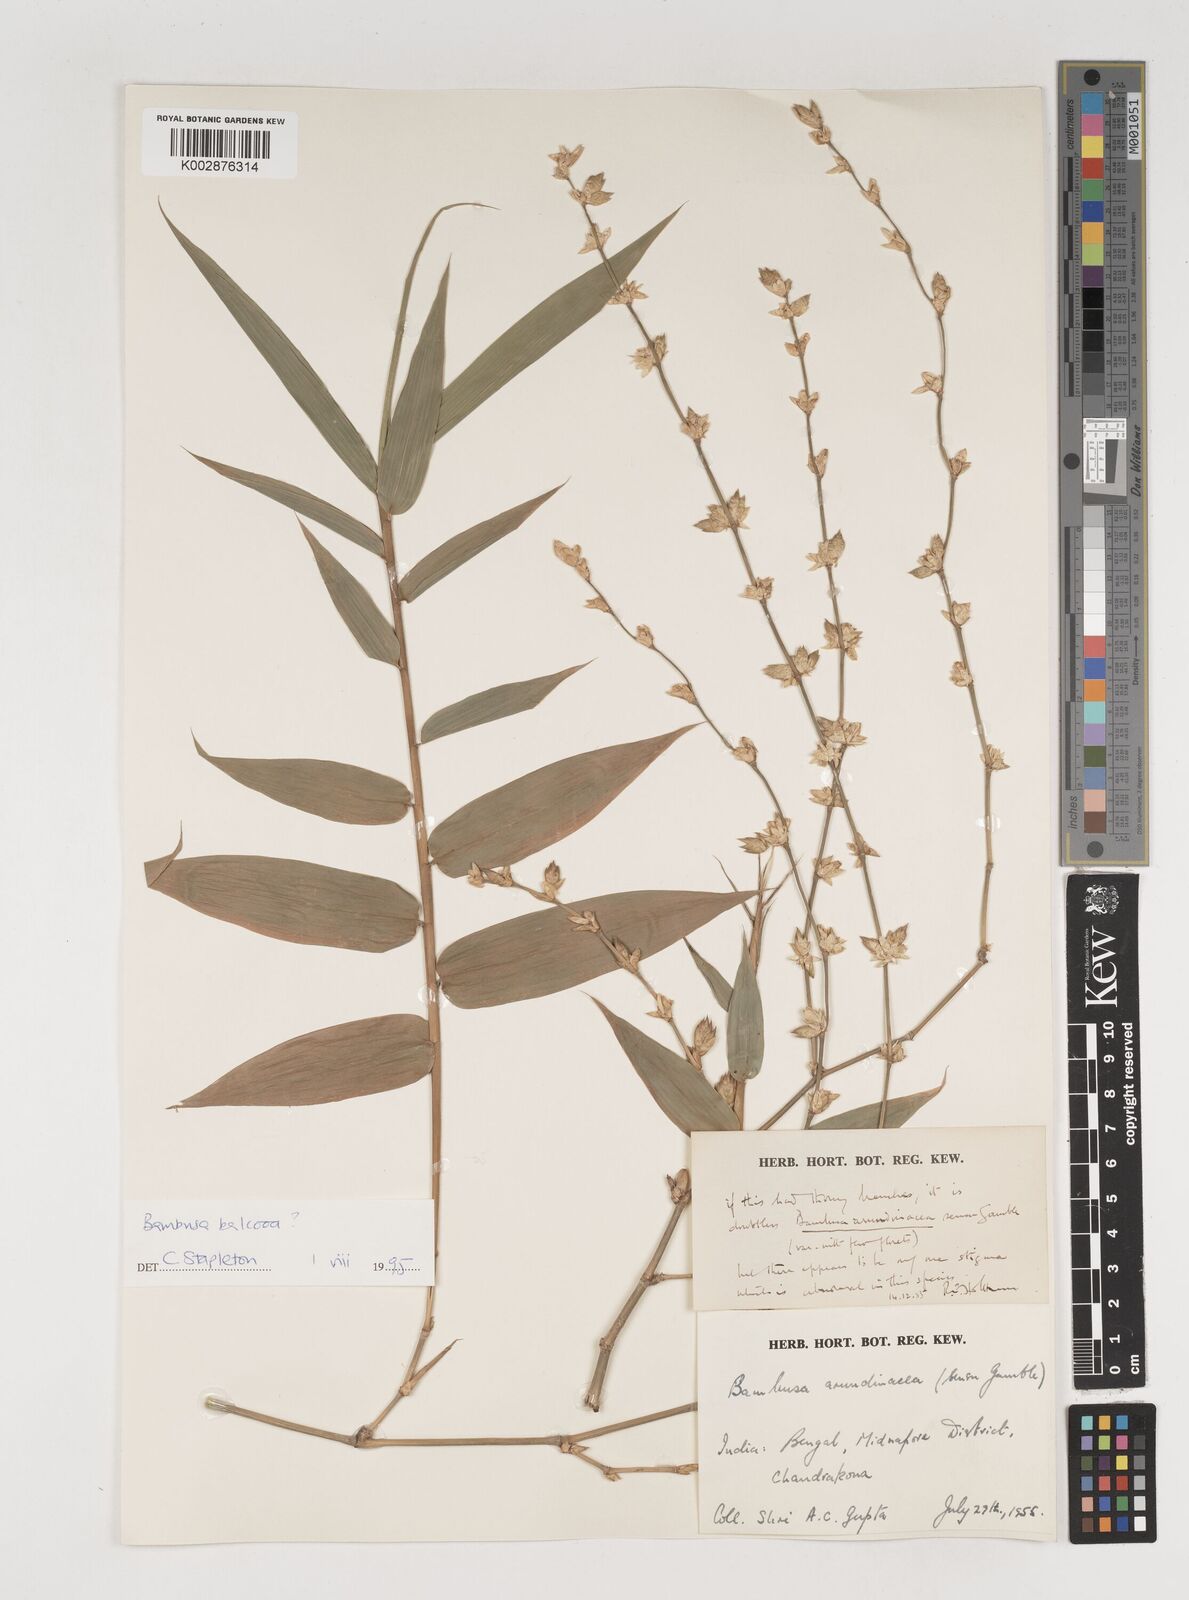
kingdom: Plantae
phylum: Tracheophyta
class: Liliopsida
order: Poales
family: Poaceae
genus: Bambusa
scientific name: Bambusa balcooa
